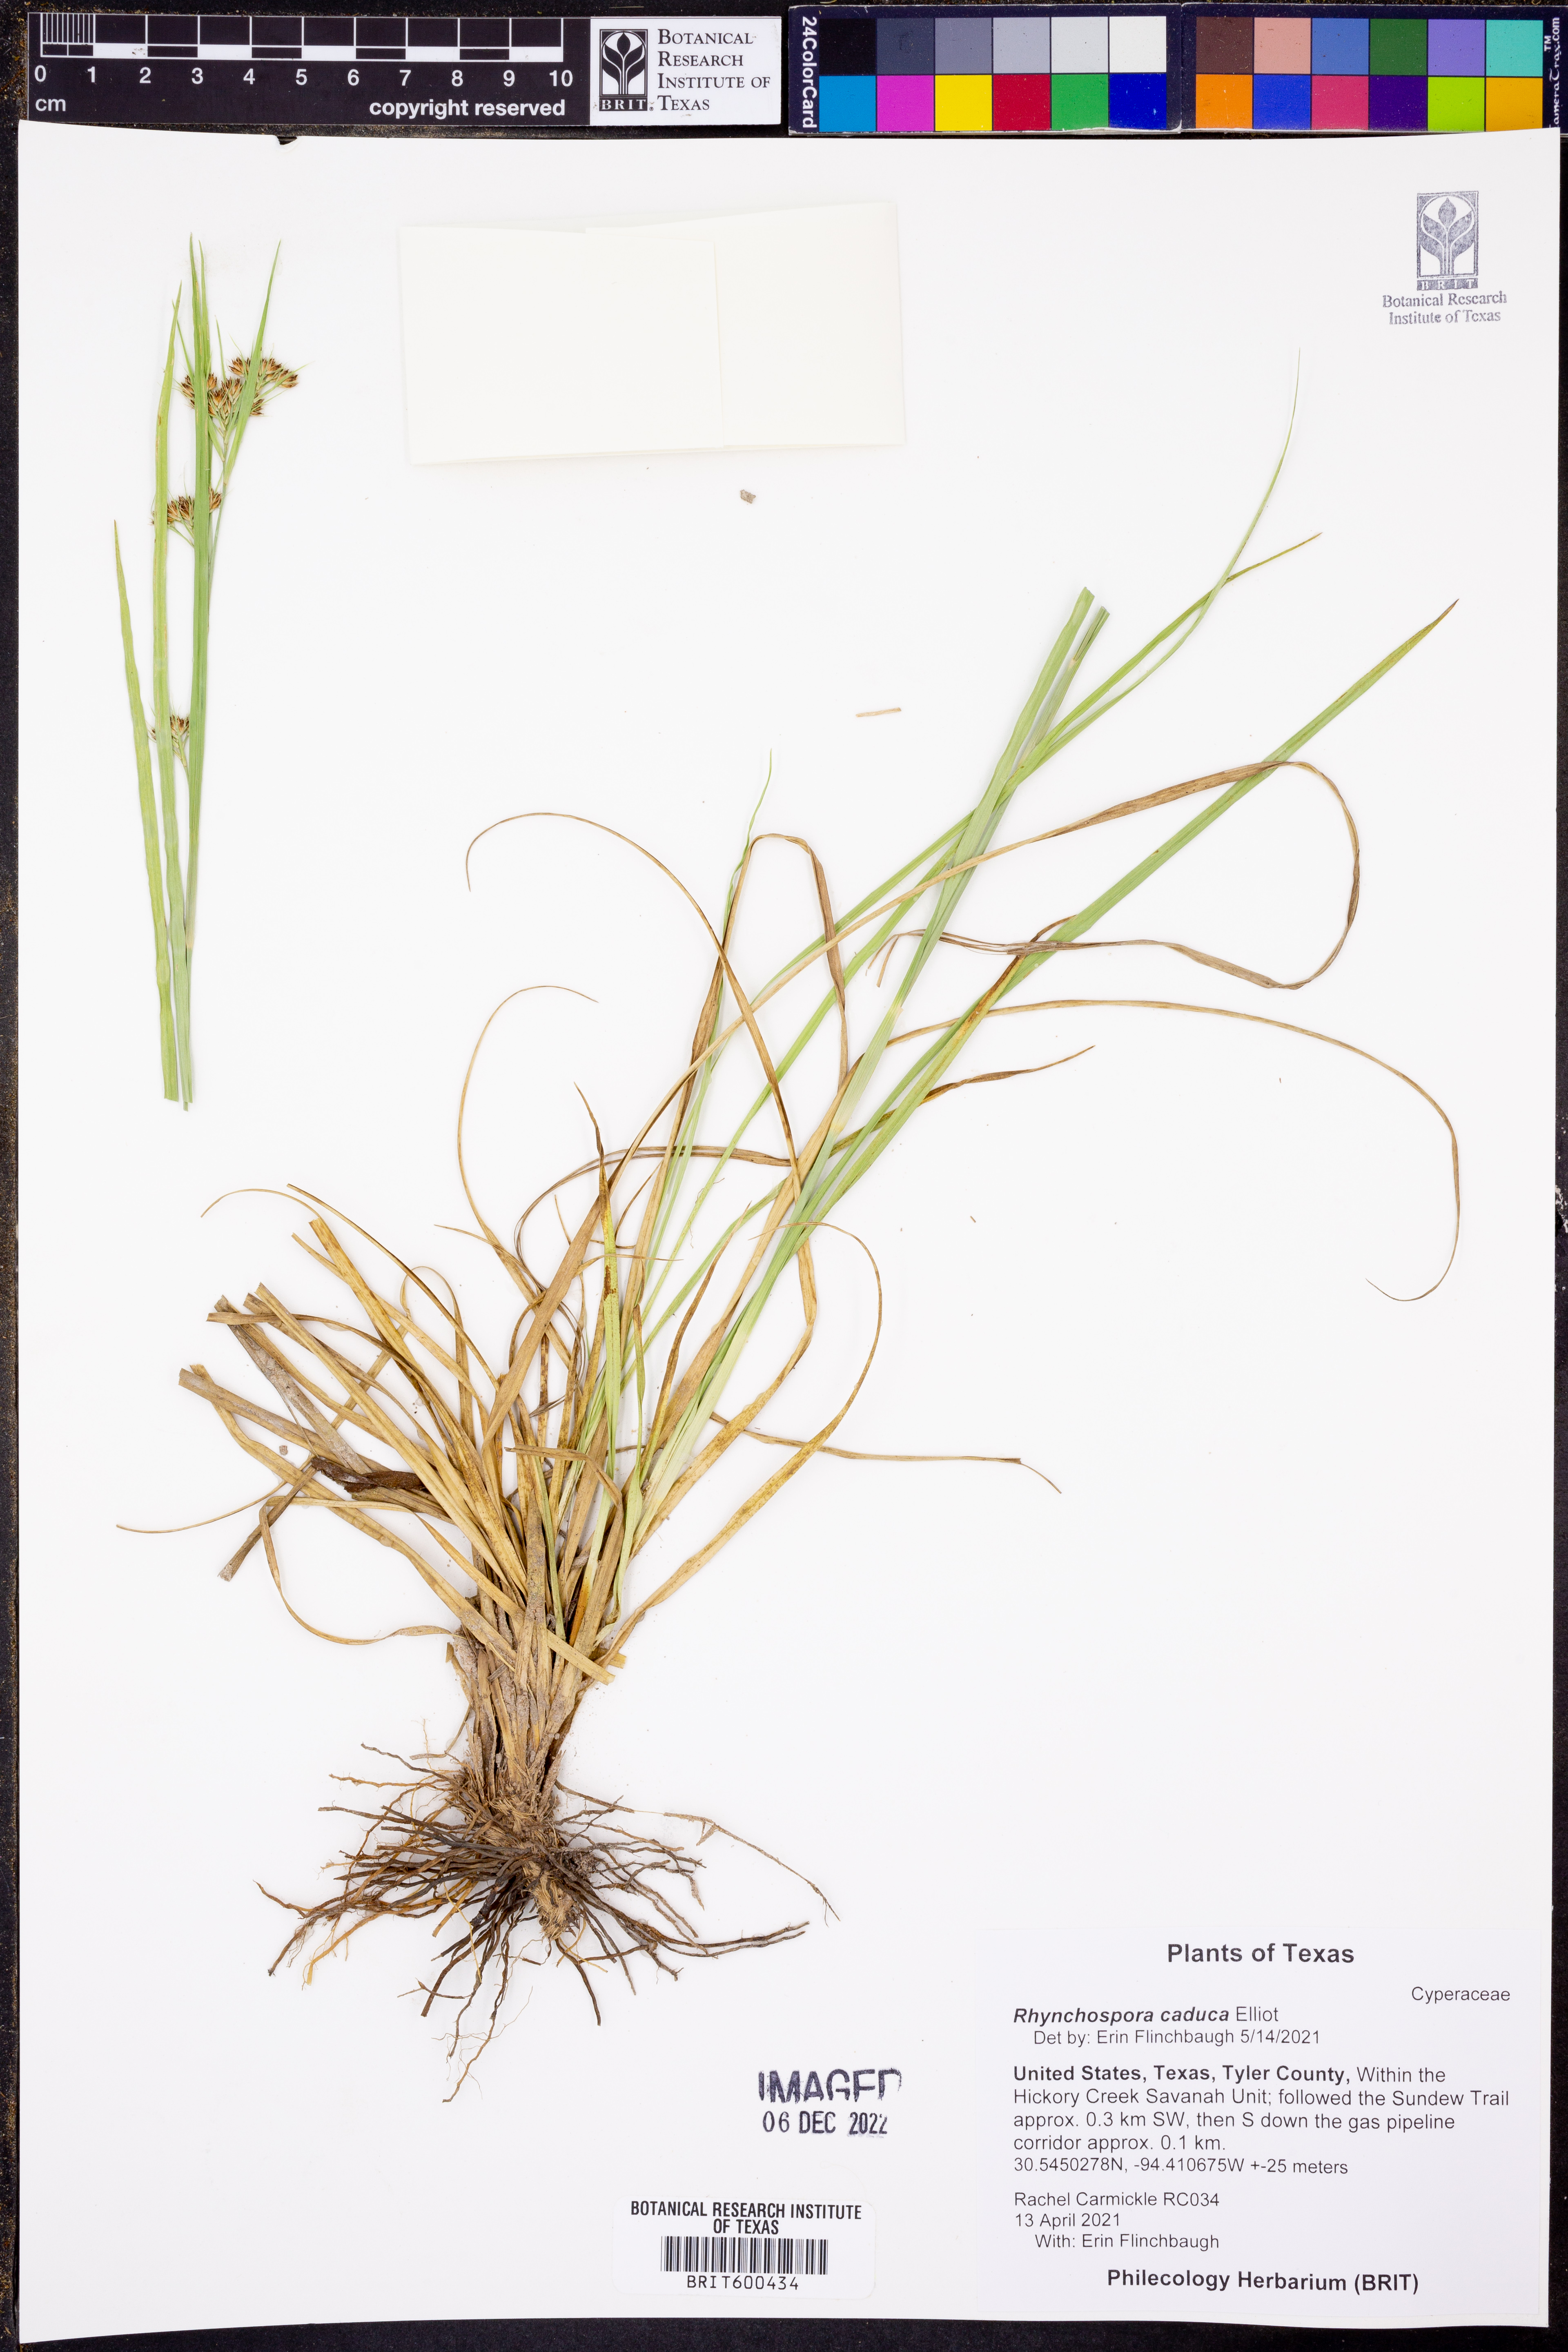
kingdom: Plantae
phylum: Tracheophyta
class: Liliopsida
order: Poales
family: Cyperaceae
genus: Rhynchospora
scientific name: Rhynchospora caduca
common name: Anglestem beaksedge
